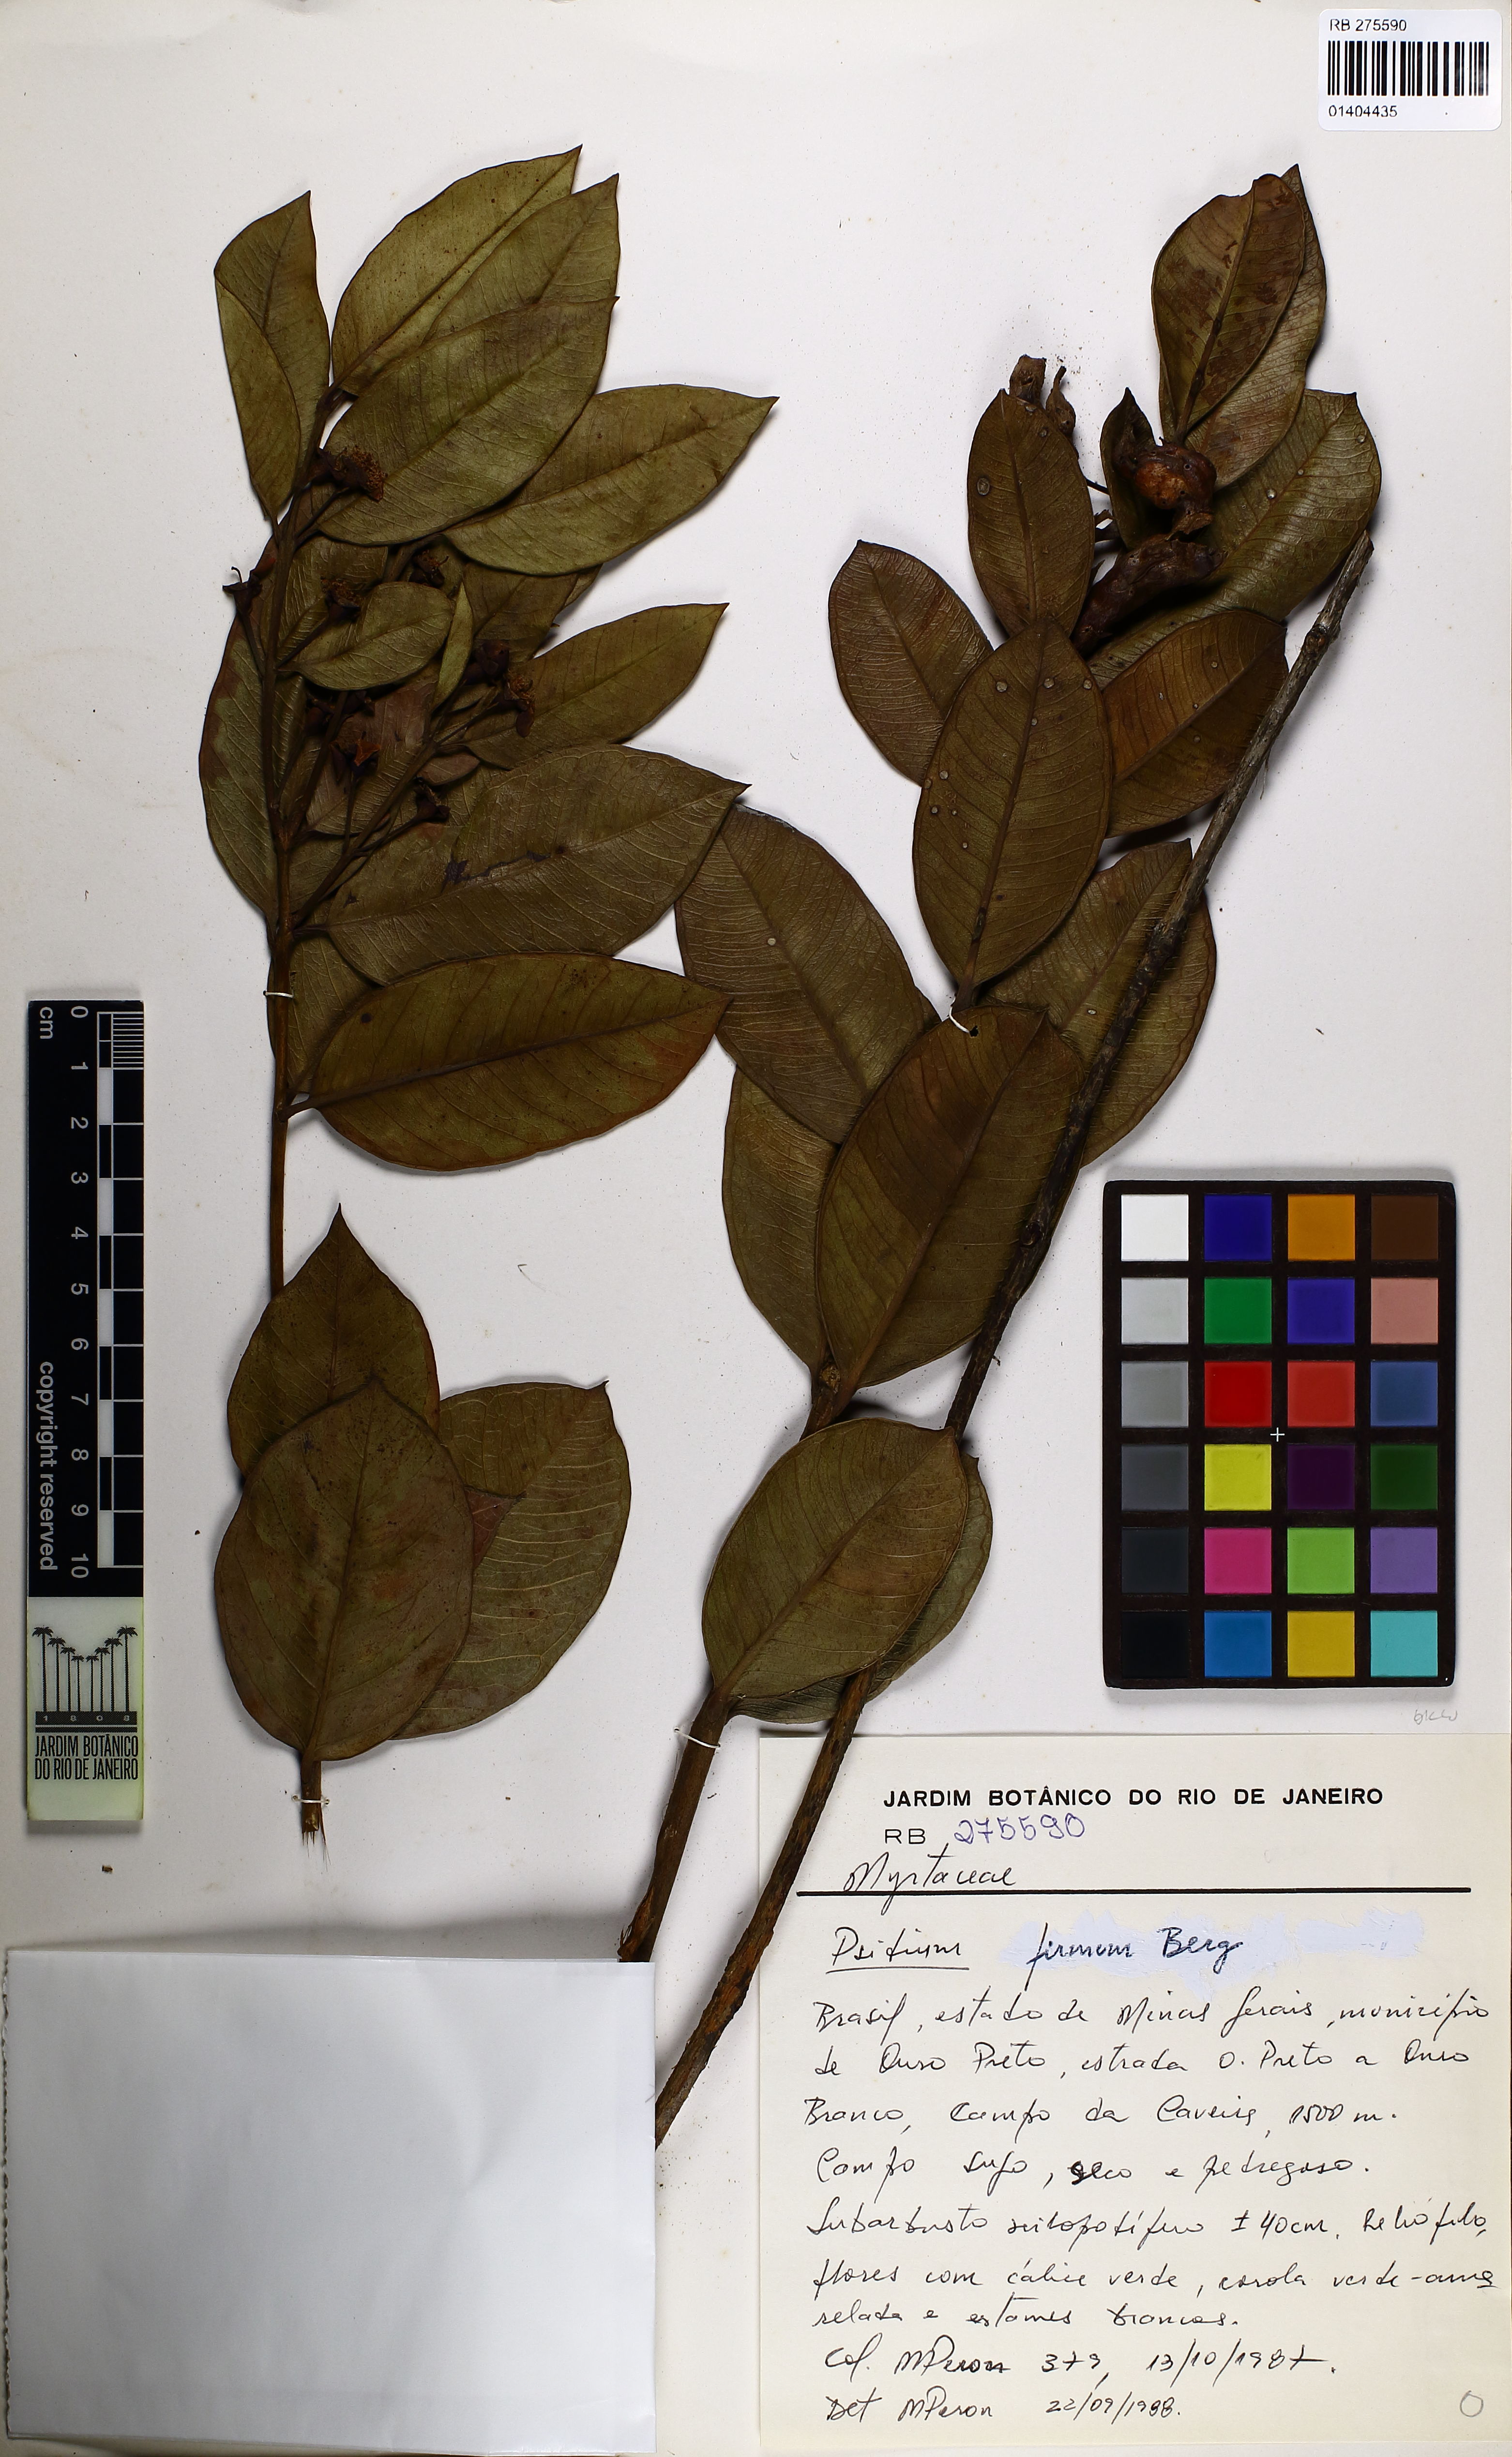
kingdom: Plantae
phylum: Tracheophyta
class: Magnoliopsida
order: Myrtales
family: Myrtaceae
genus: Psidium
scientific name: Psidium firmum
